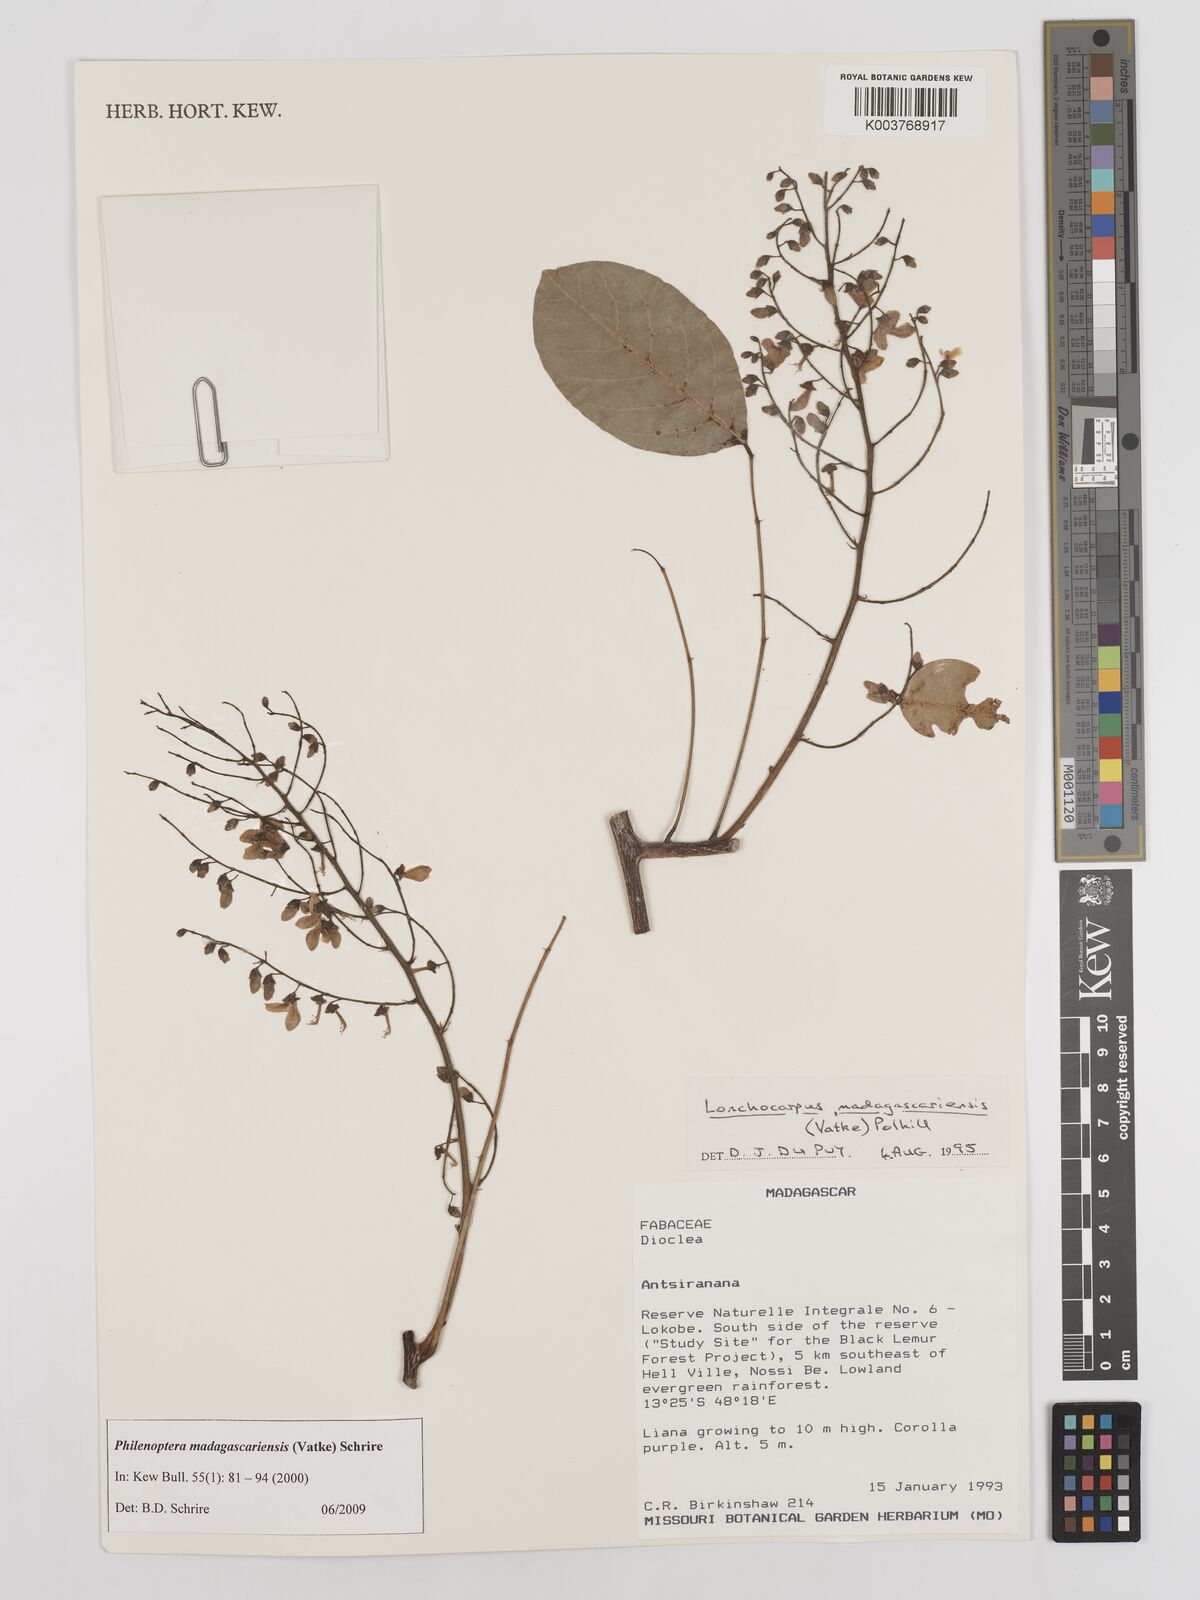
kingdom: Plantae
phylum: Tracheophyta
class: Magnoliopsida
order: Fabales
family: Fabaceae
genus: Lonchocarpus
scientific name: Lonchocarpus madagascariensis
